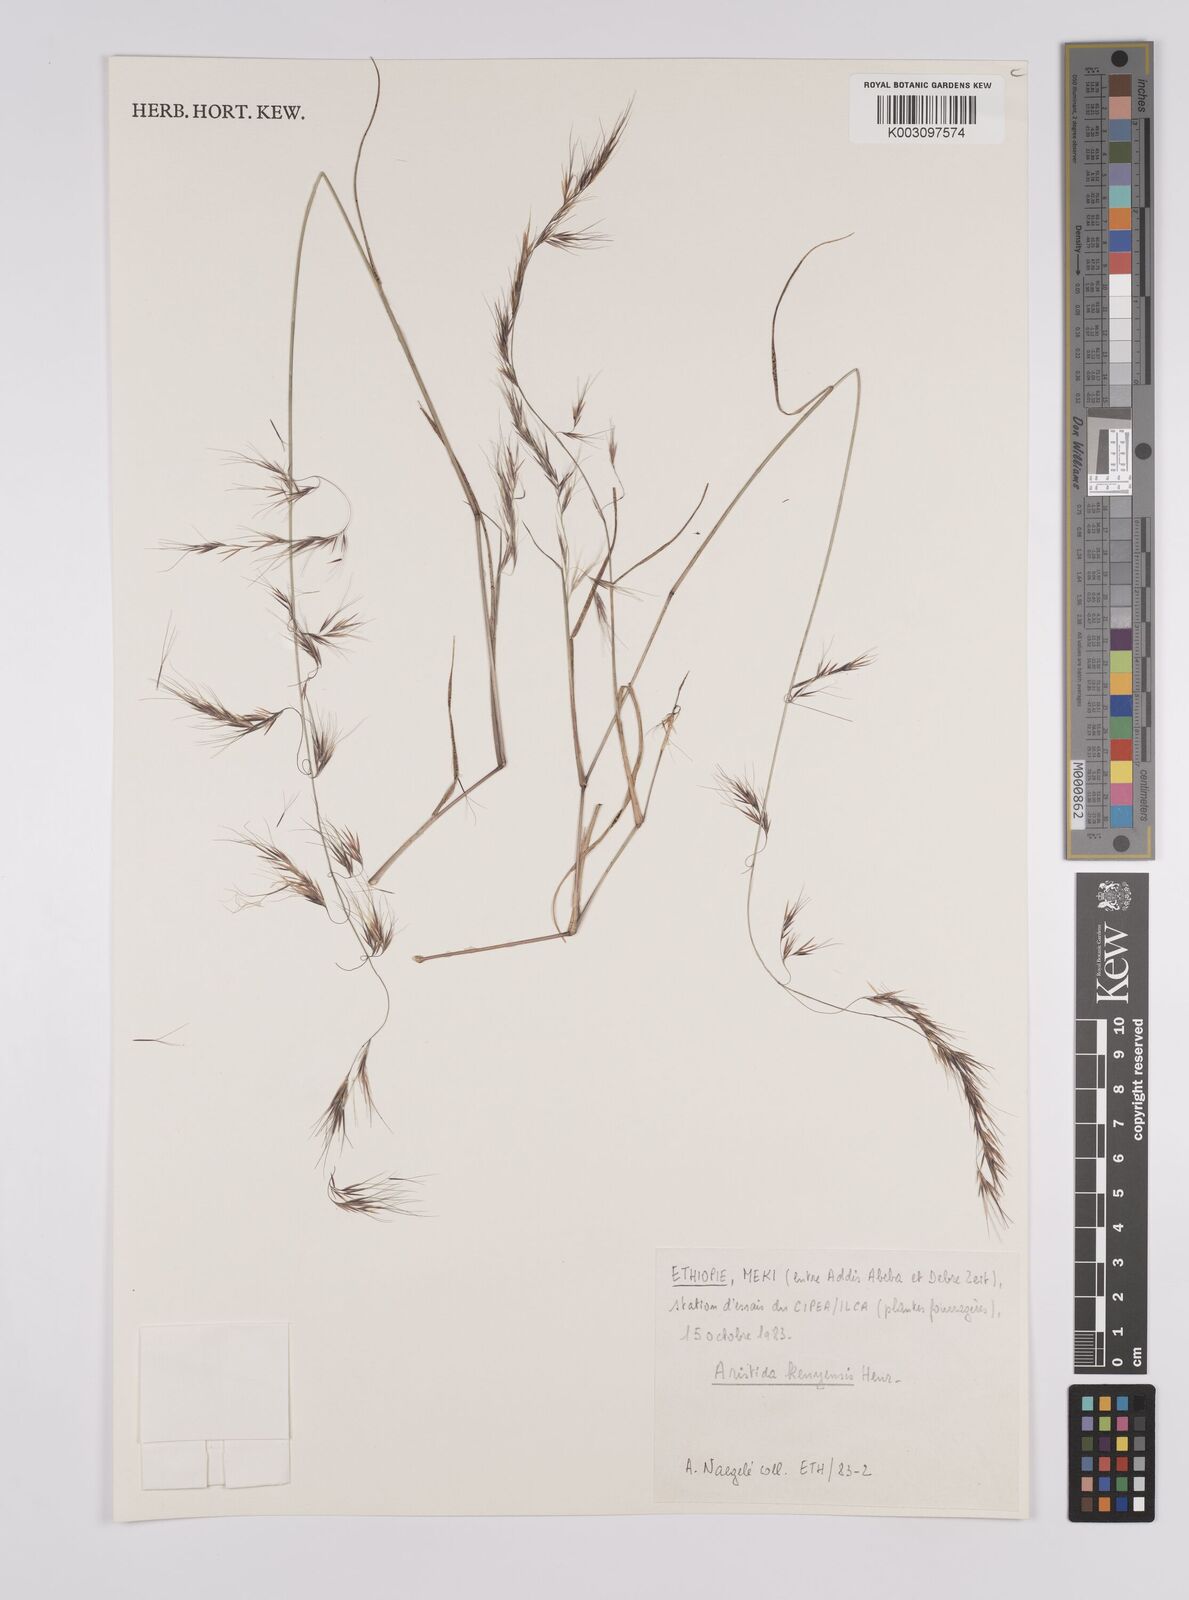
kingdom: Plantae
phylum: Tracheophyta
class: Liliopsida
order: Poales
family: Poaceae
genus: Aristida
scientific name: Aristida kenyensis
